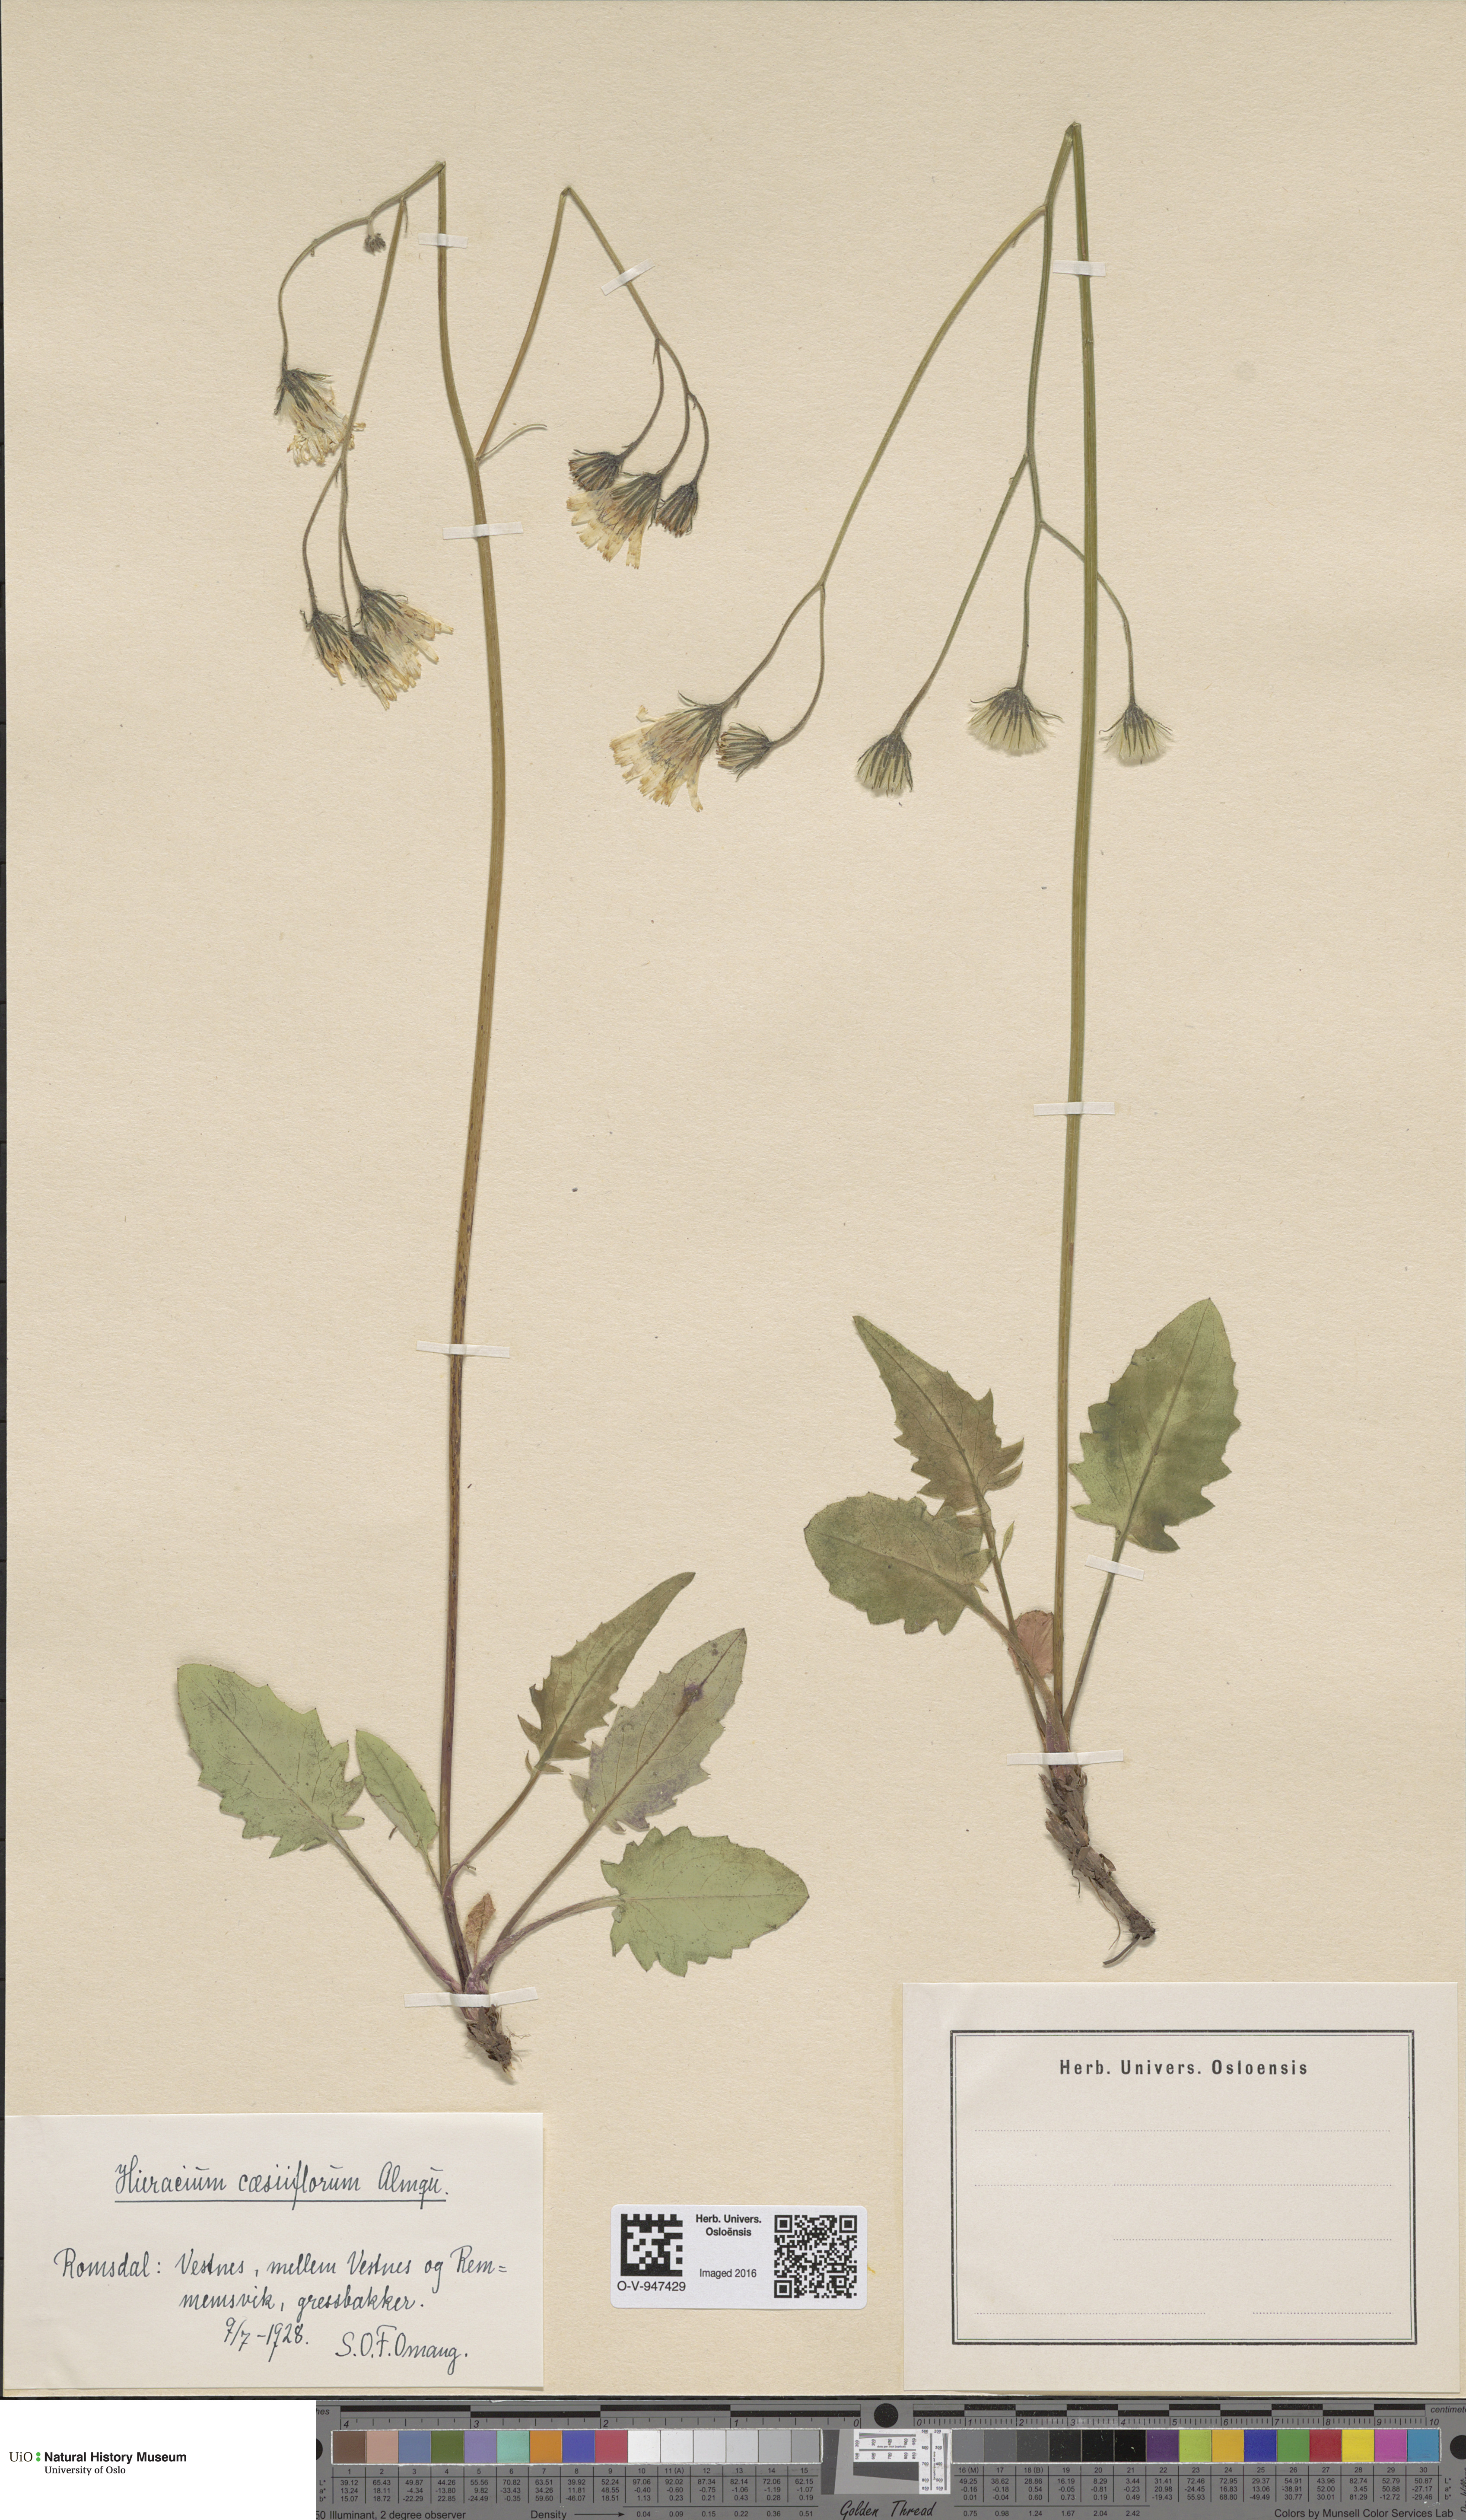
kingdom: Plantae
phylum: Tracheophyta
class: Magnoliopsida
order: Asterales
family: Asteraceae
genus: Hieracium
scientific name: Hieracium bifidum
